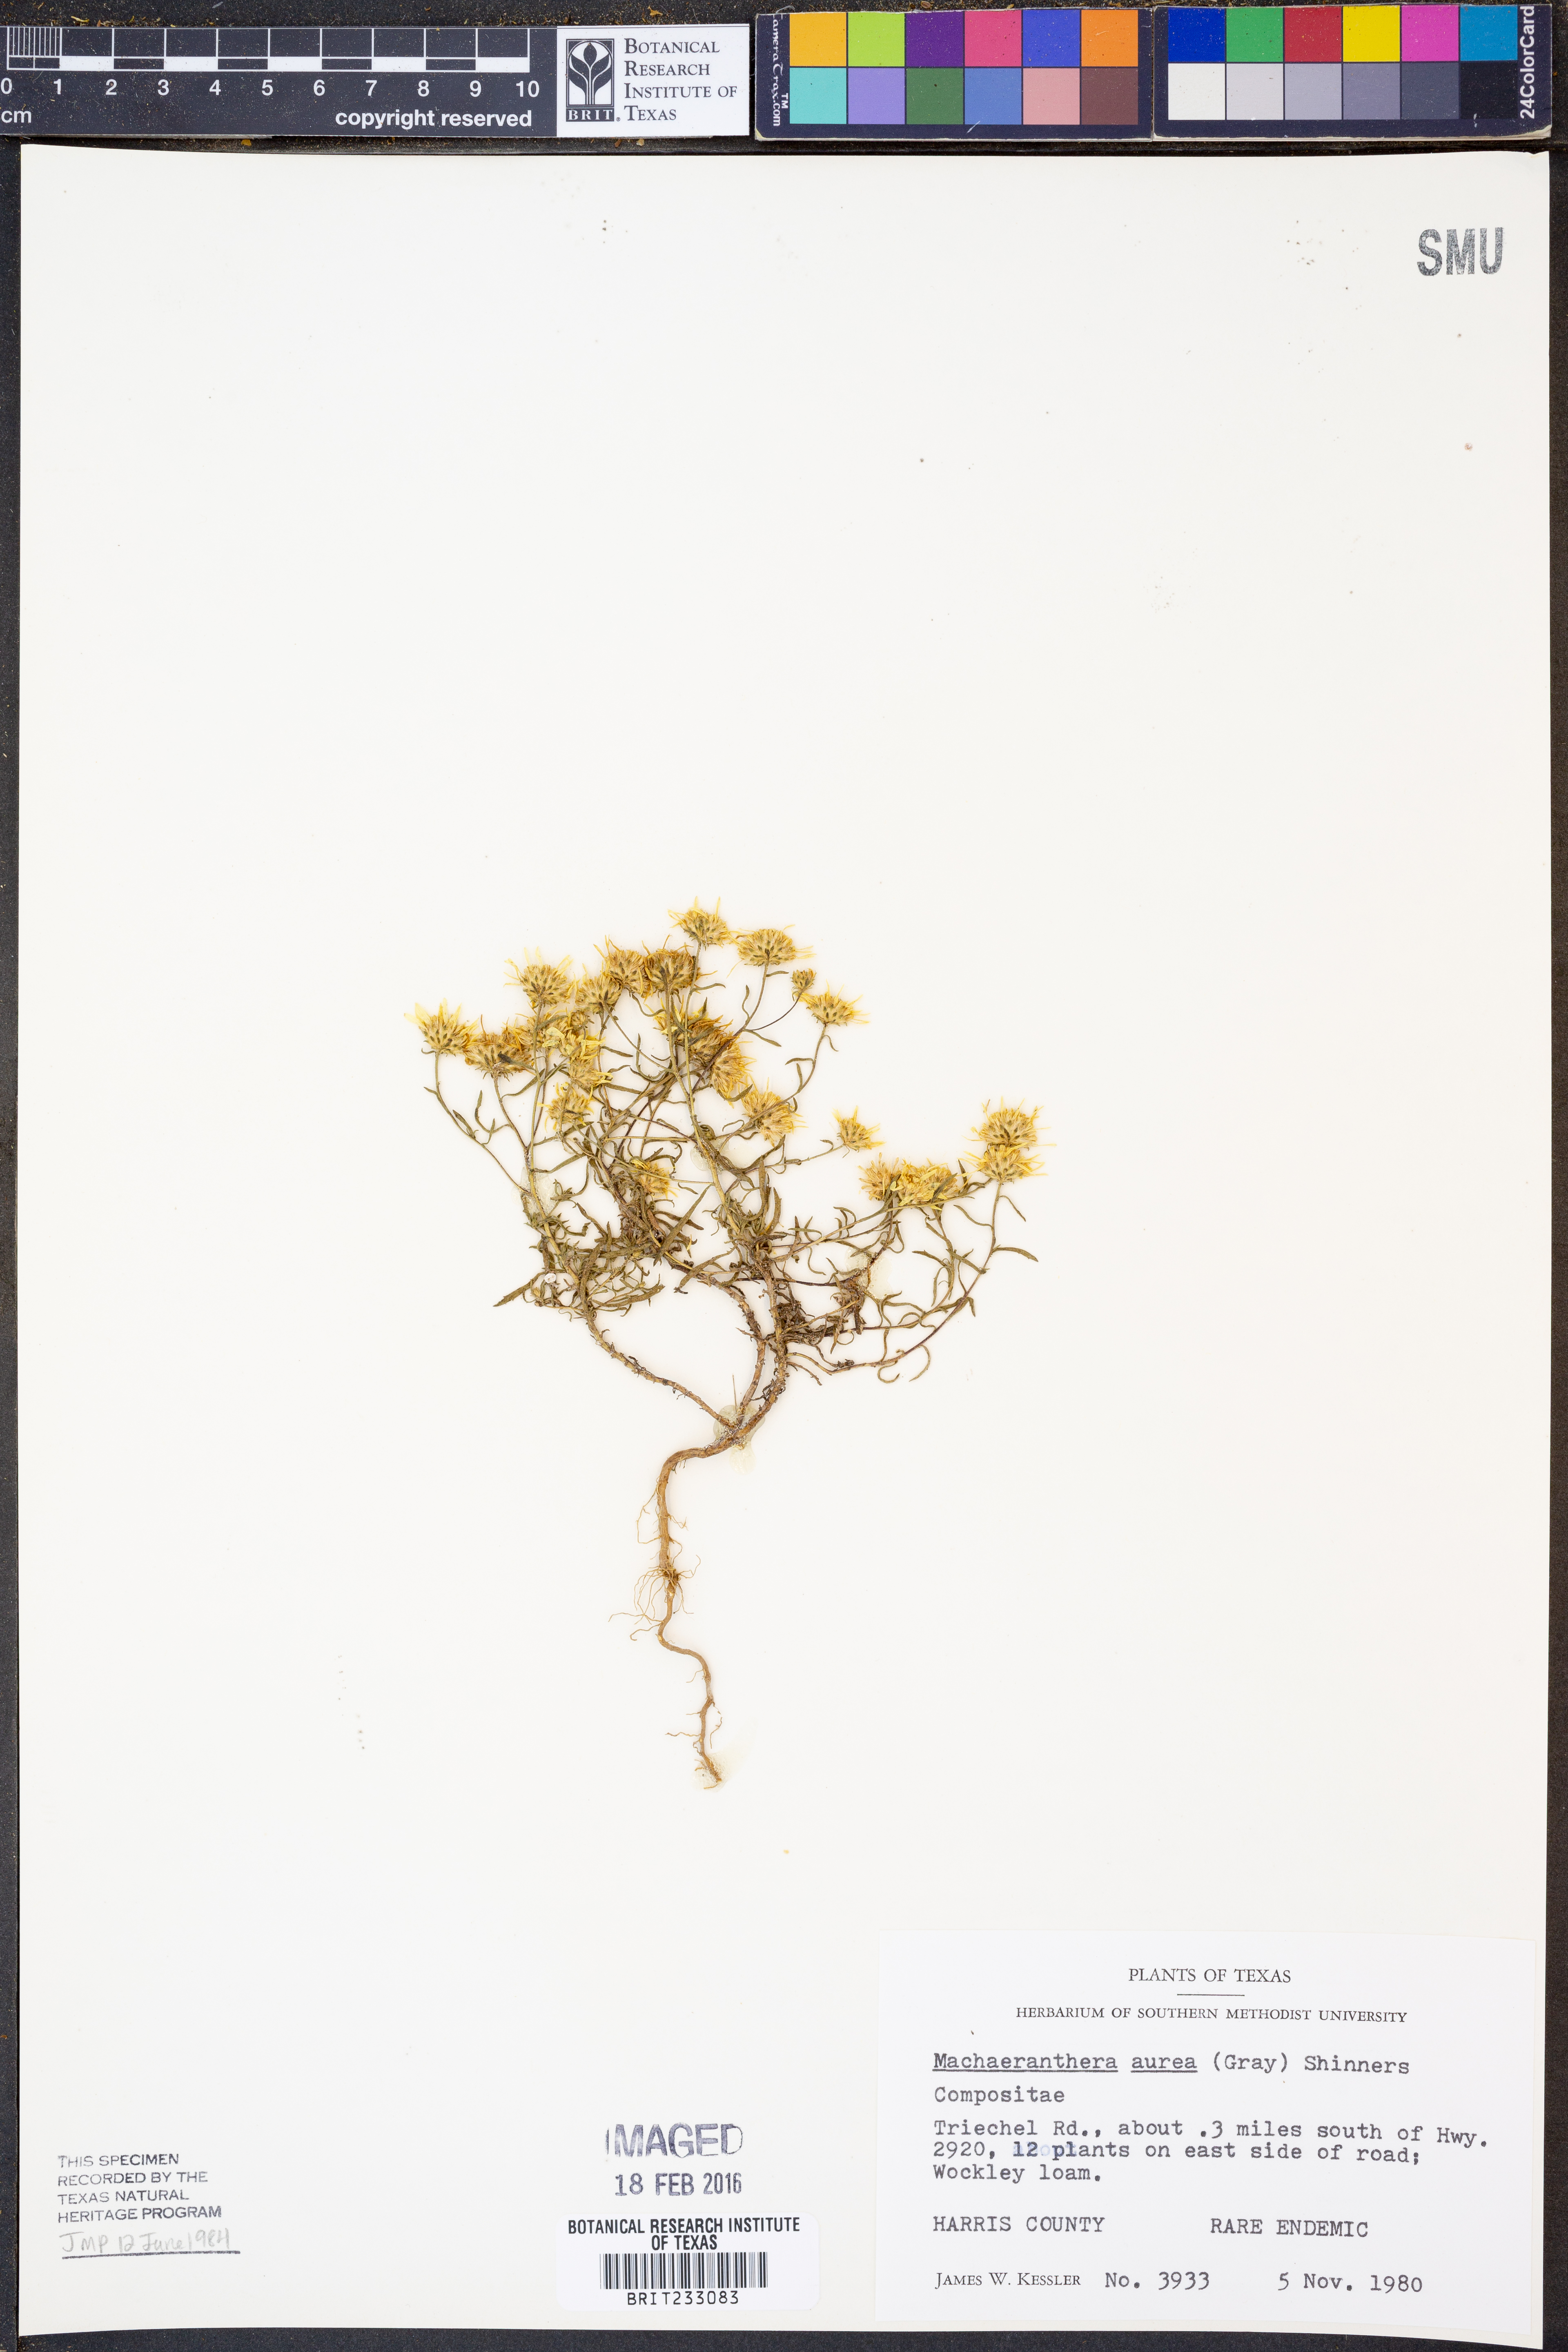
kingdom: Plantae
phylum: Tracheophyta
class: Magnoliopsida
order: Asterales
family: Asteraceae
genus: Rayjacksonia
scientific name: Rayjacksonia aurea
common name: Houston camphor daisy
